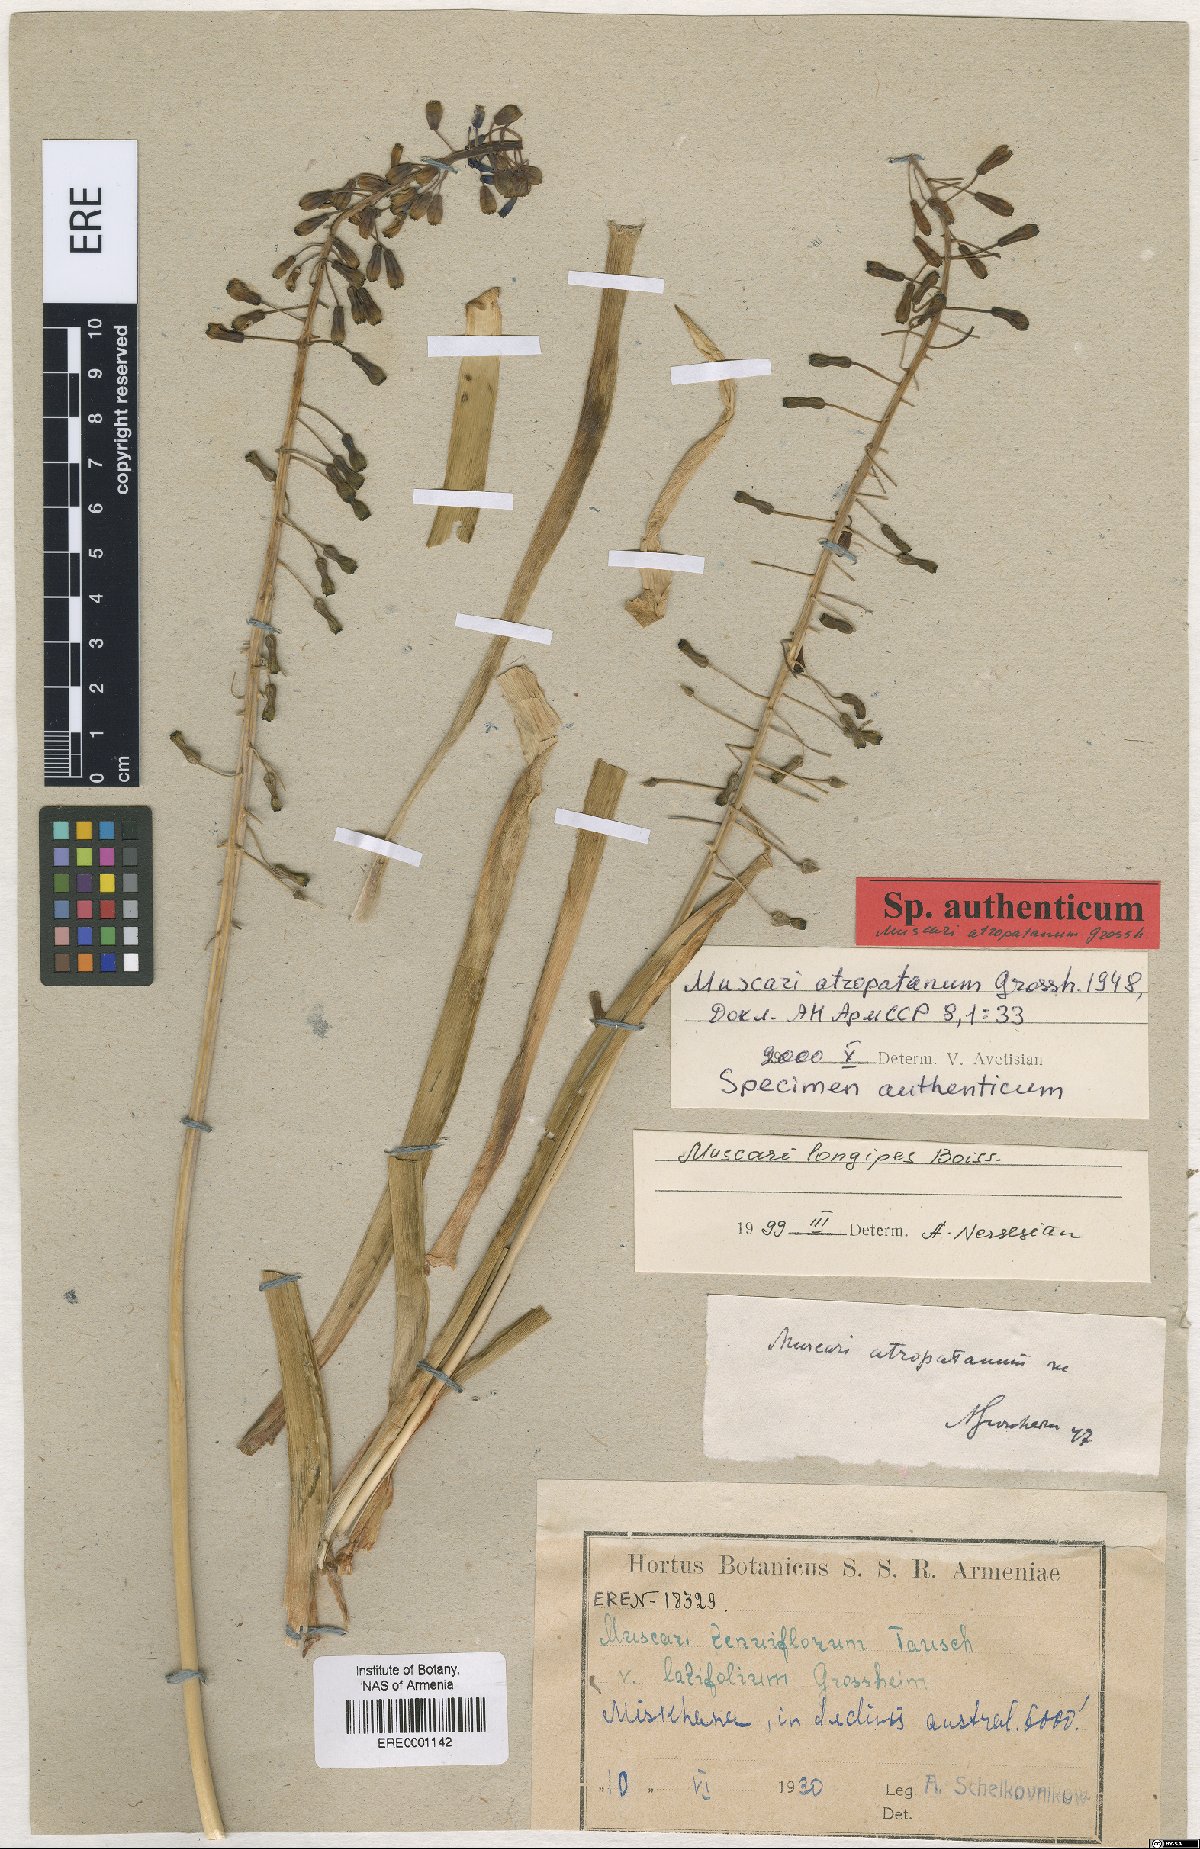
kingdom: Plantae
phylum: Tracheophyta
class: Liliopsida
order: Asparagales
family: Asparagaceae
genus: Muscari
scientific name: Muscari longipes
